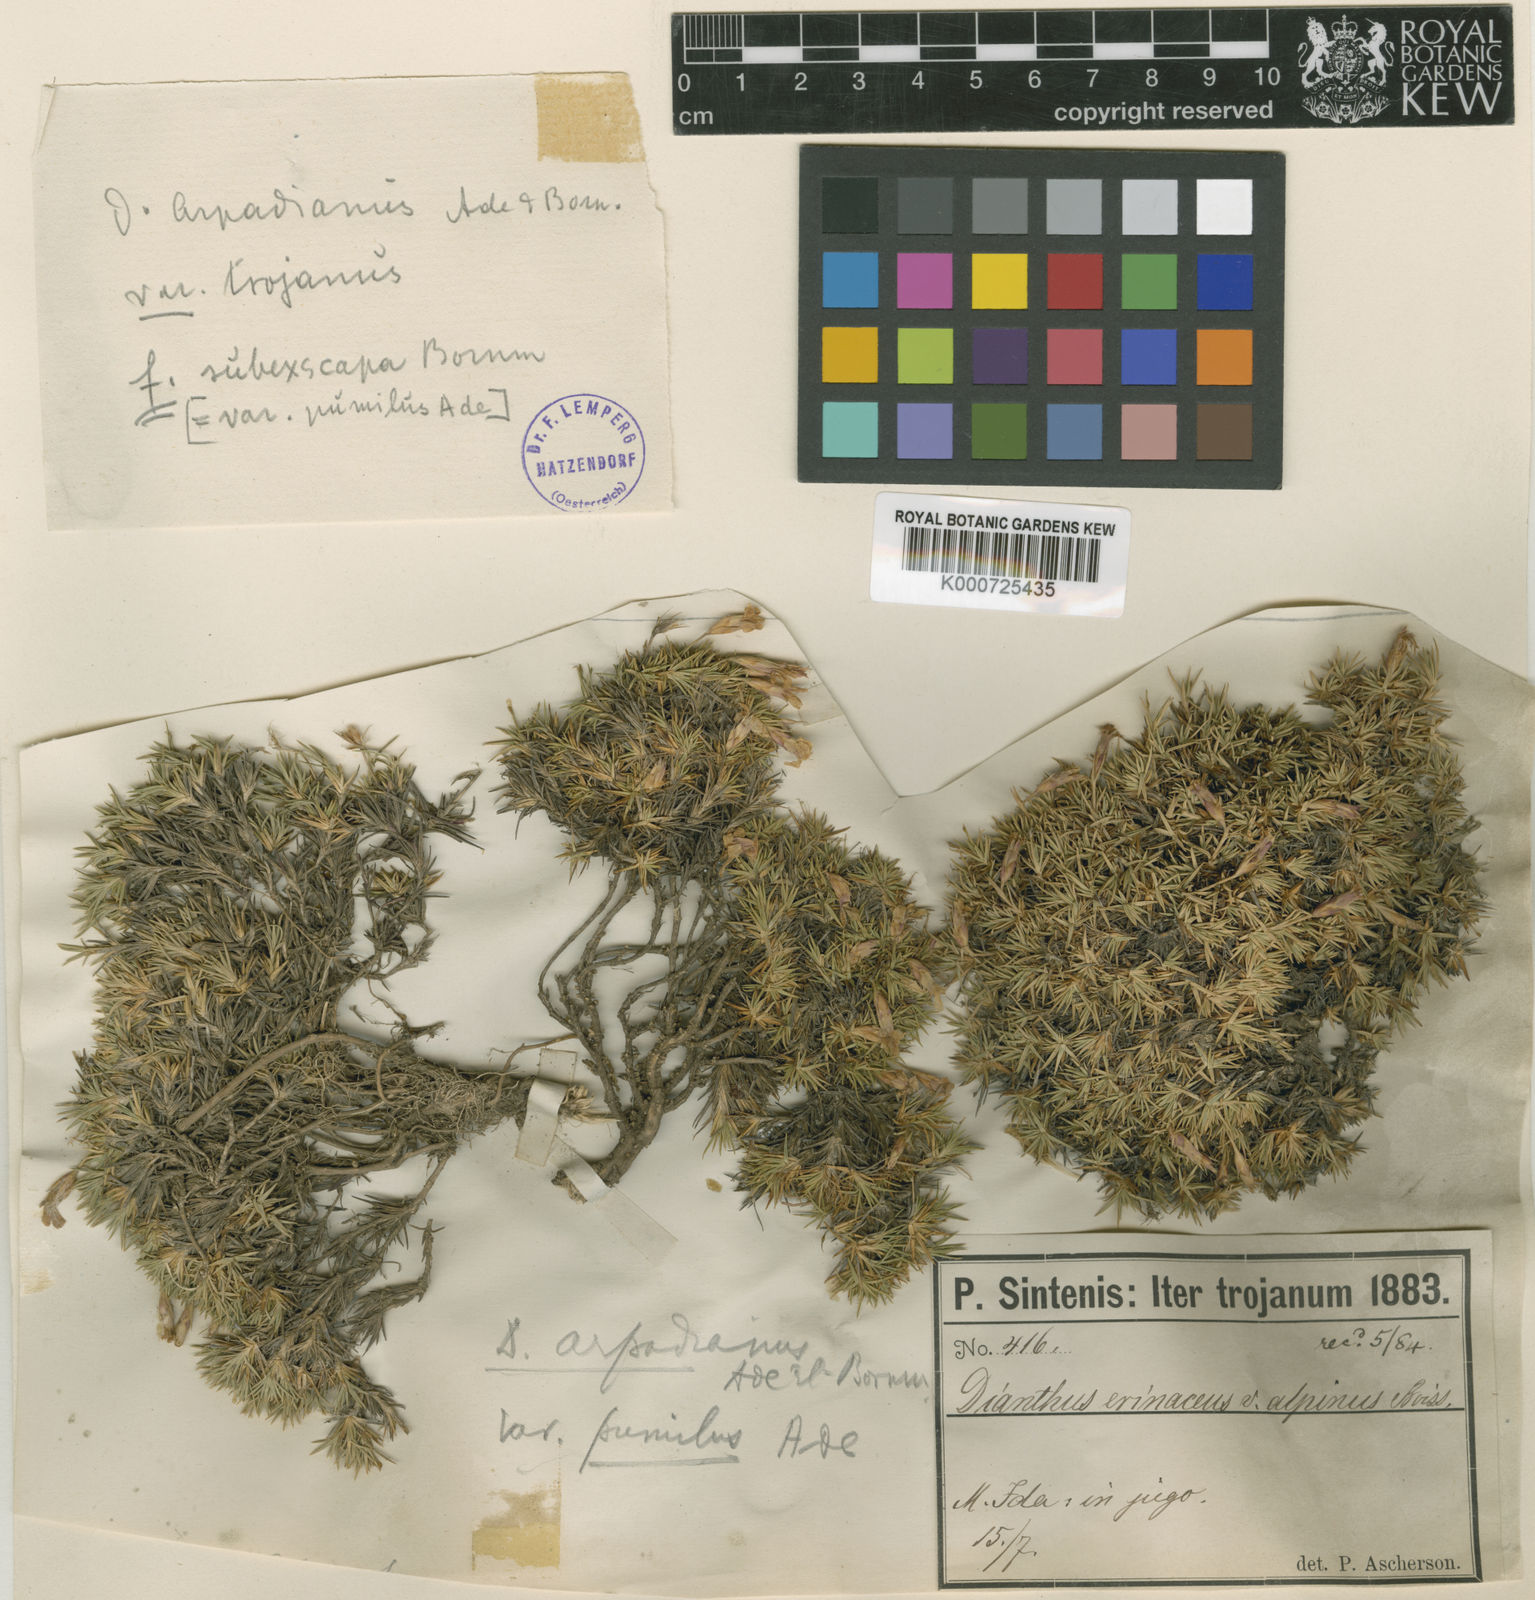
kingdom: Plantae
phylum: Tracheophyta
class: Magnoliopsida
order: Caryophyllales
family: Caryophyllaceae
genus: Dianthus
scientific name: Dianthus arpadianus
